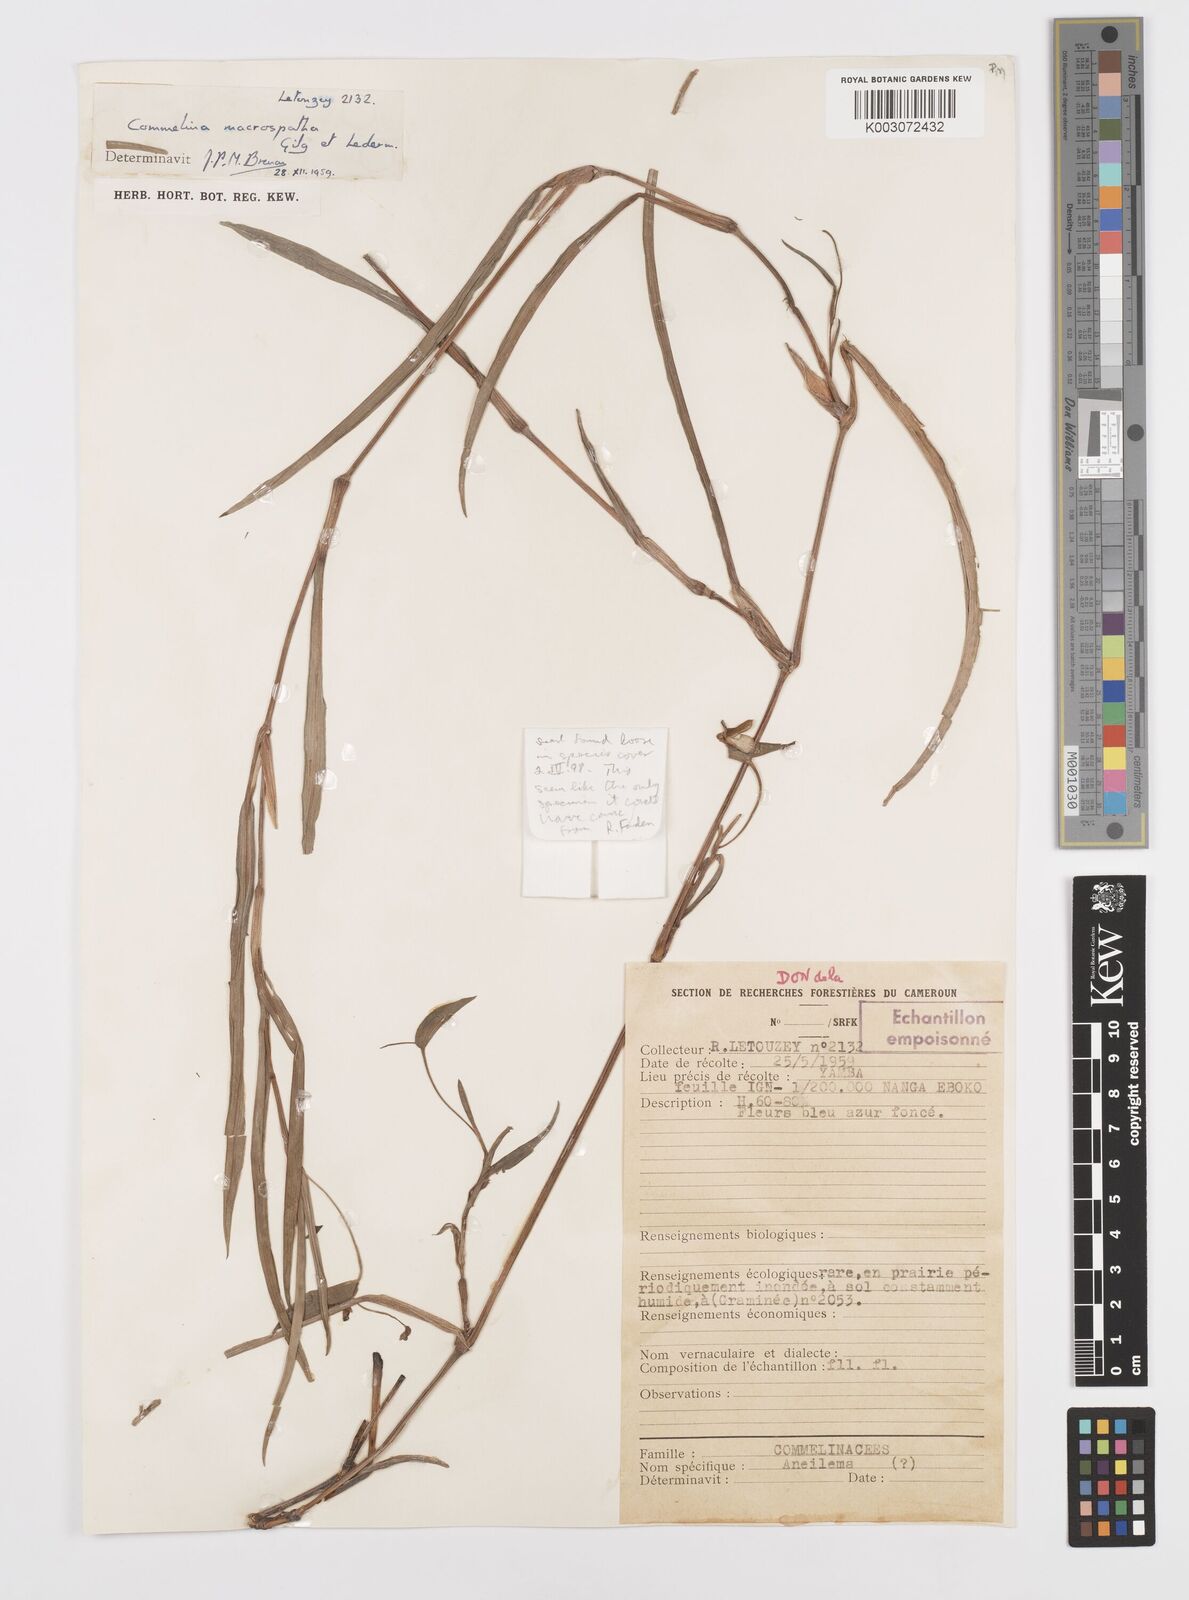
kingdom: Plantae
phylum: Tracheophyta
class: Liliopsida
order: Commelinales
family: Commelinaceae
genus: Commelina
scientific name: Commelina macrospatha
